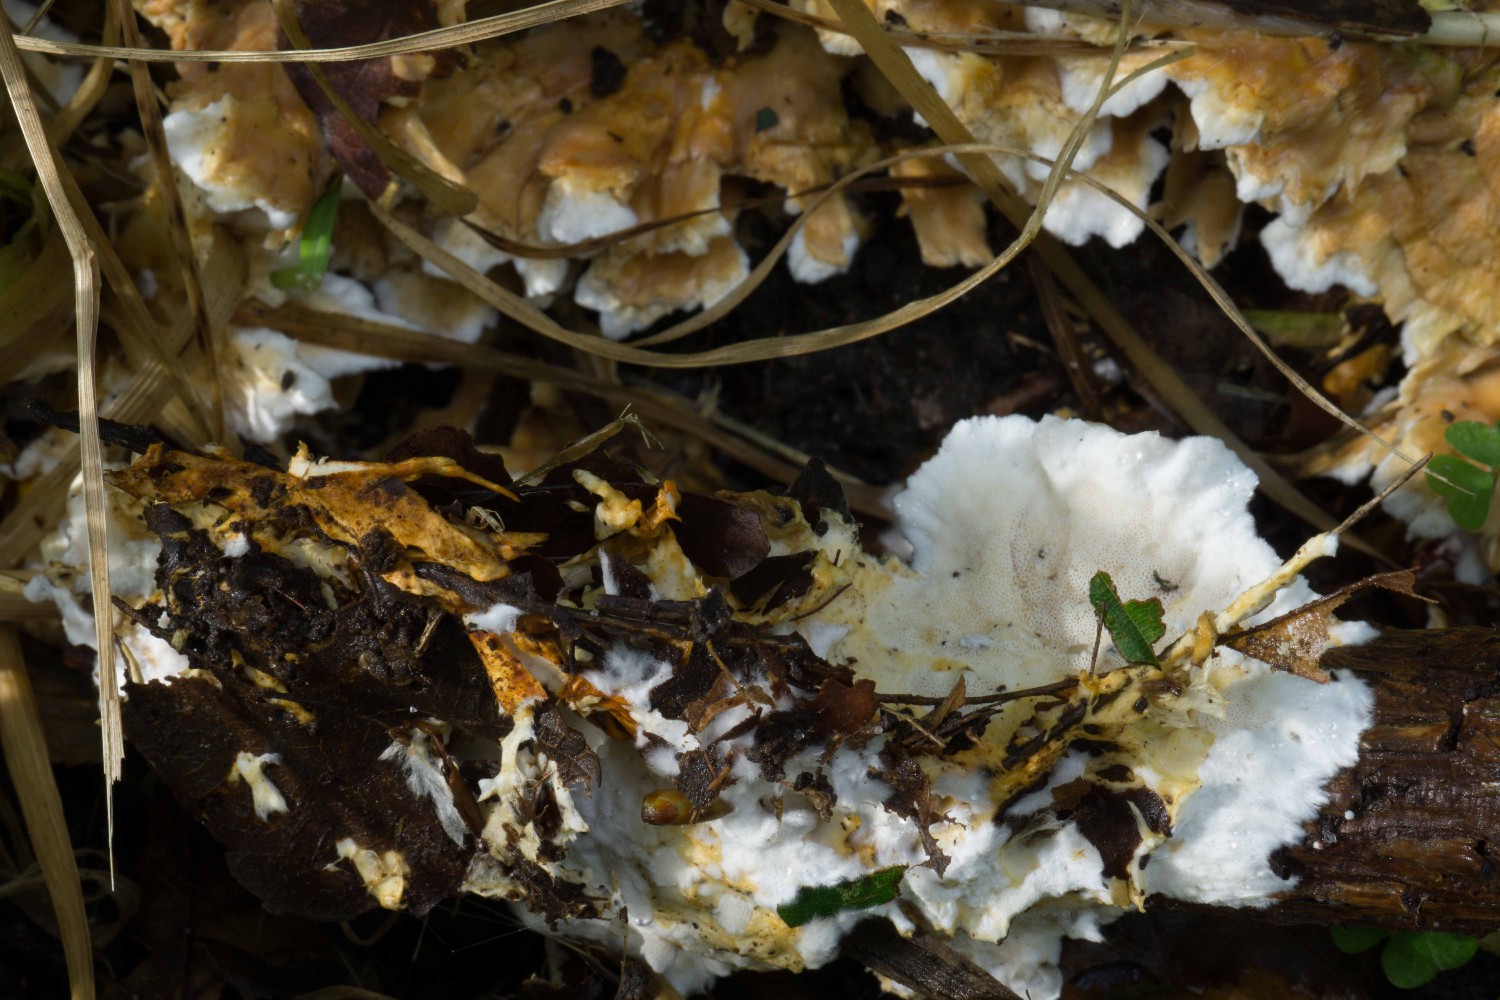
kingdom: Fungi
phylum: Basidiomycota
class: Agaricomycetes
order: Polyporales
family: Steccherinaceae
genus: Loweomyces
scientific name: Loweomyces wynneae
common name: krybende blødporesvamp
